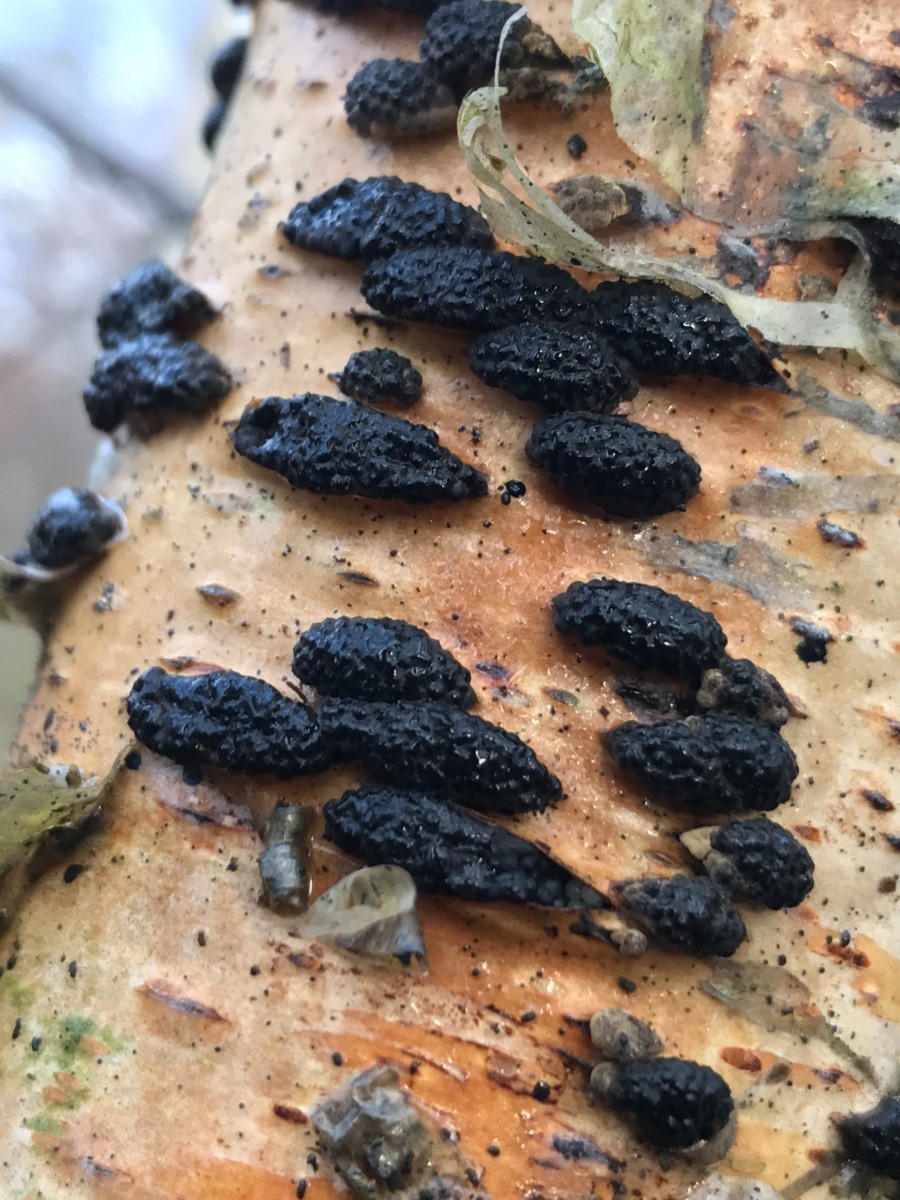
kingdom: Fungi
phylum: Ascomycota
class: Sordariomycetes
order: Xylariales
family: Hypoxylaceae
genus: Jackrogersella
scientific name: Jackrogersella multiformis
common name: foranderlig kulbær
